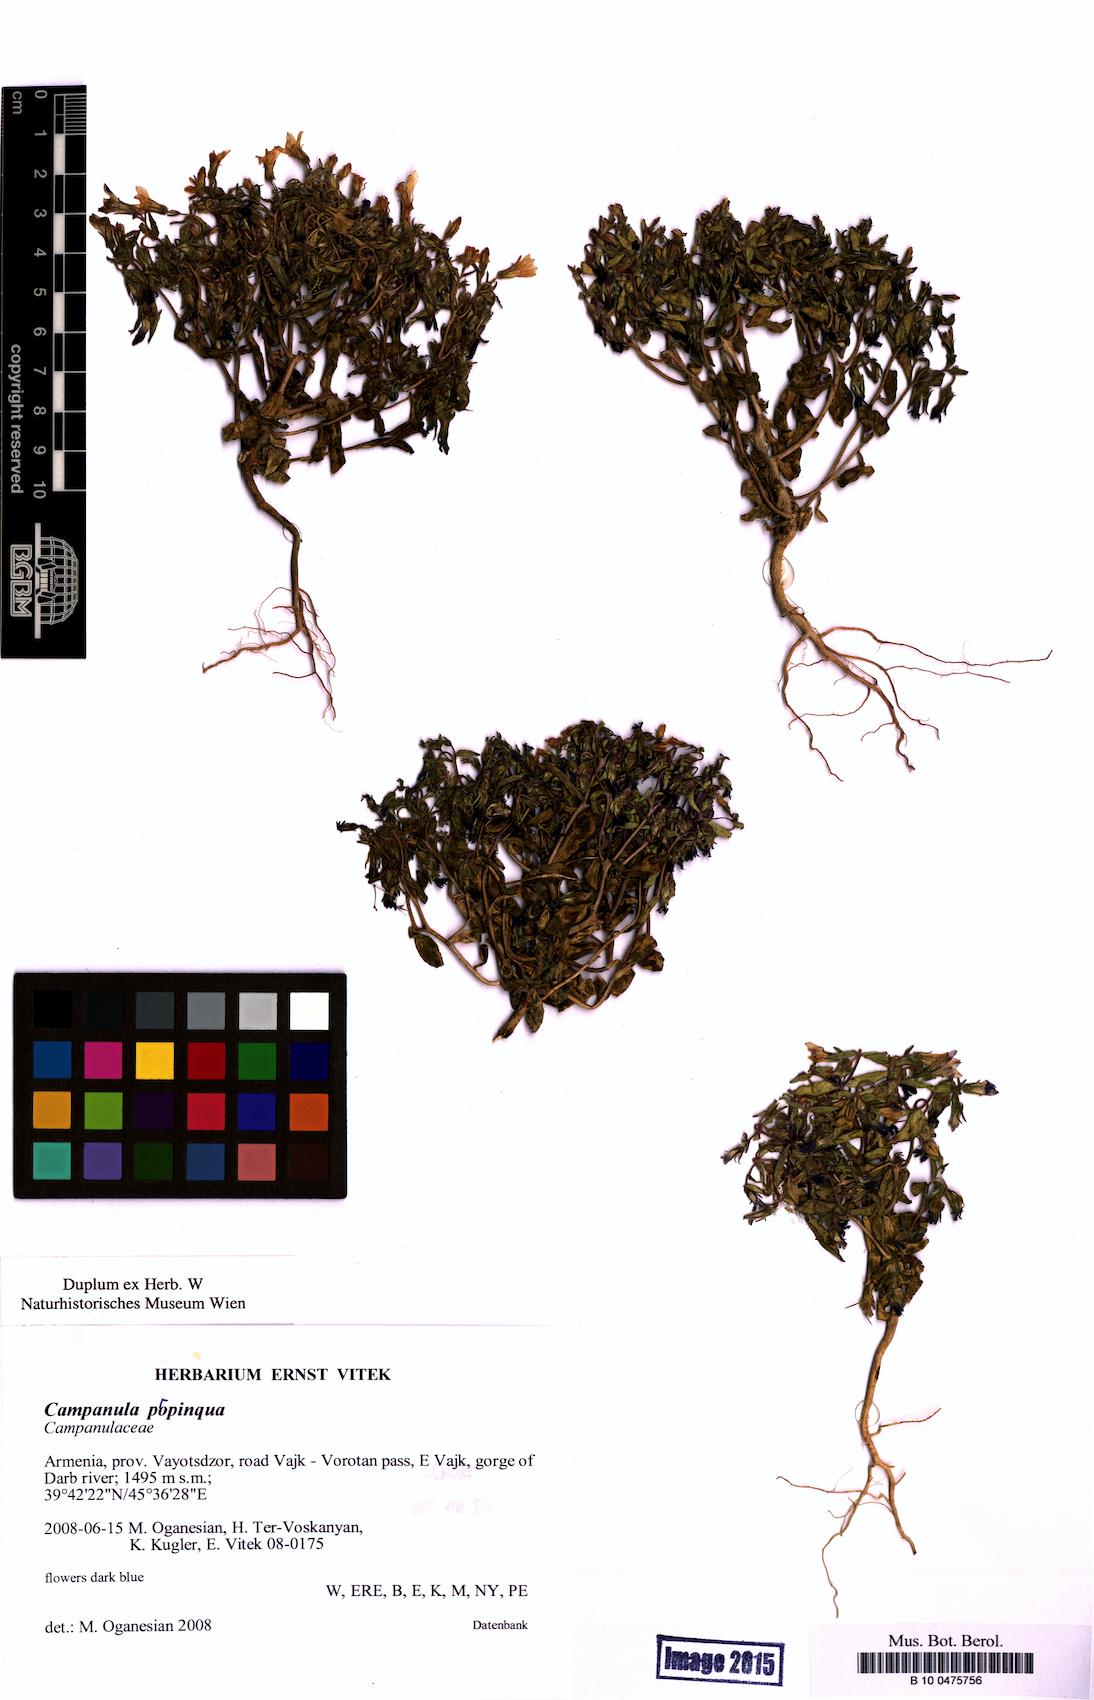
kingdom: Plantae
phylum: Tracheophyta
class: Magnoliopsida
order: Asterales
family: Campanulaceae
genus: Campanula
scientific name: Campanula propinqua
